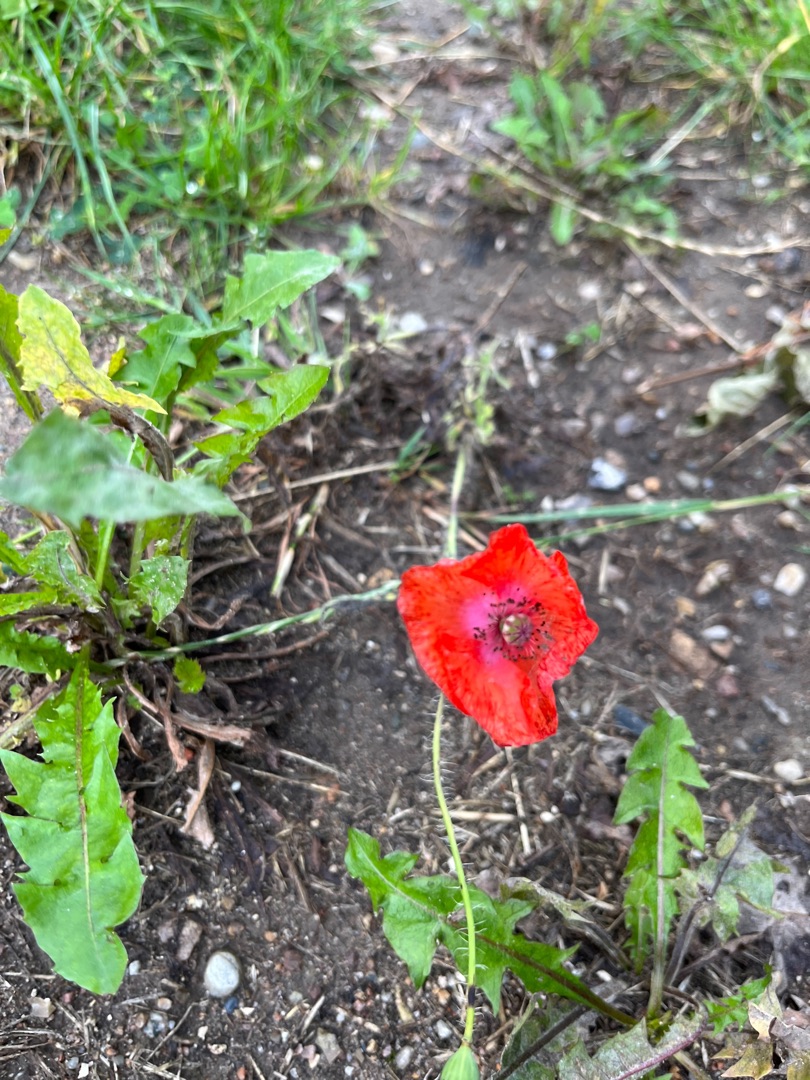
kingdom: Plantae
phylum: Tracheophyta
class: Magnoliopsida
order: Ranunculales
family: Papaveraceae
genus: Papaver
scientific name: Papaver rhoeas
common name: Korn-valmue
